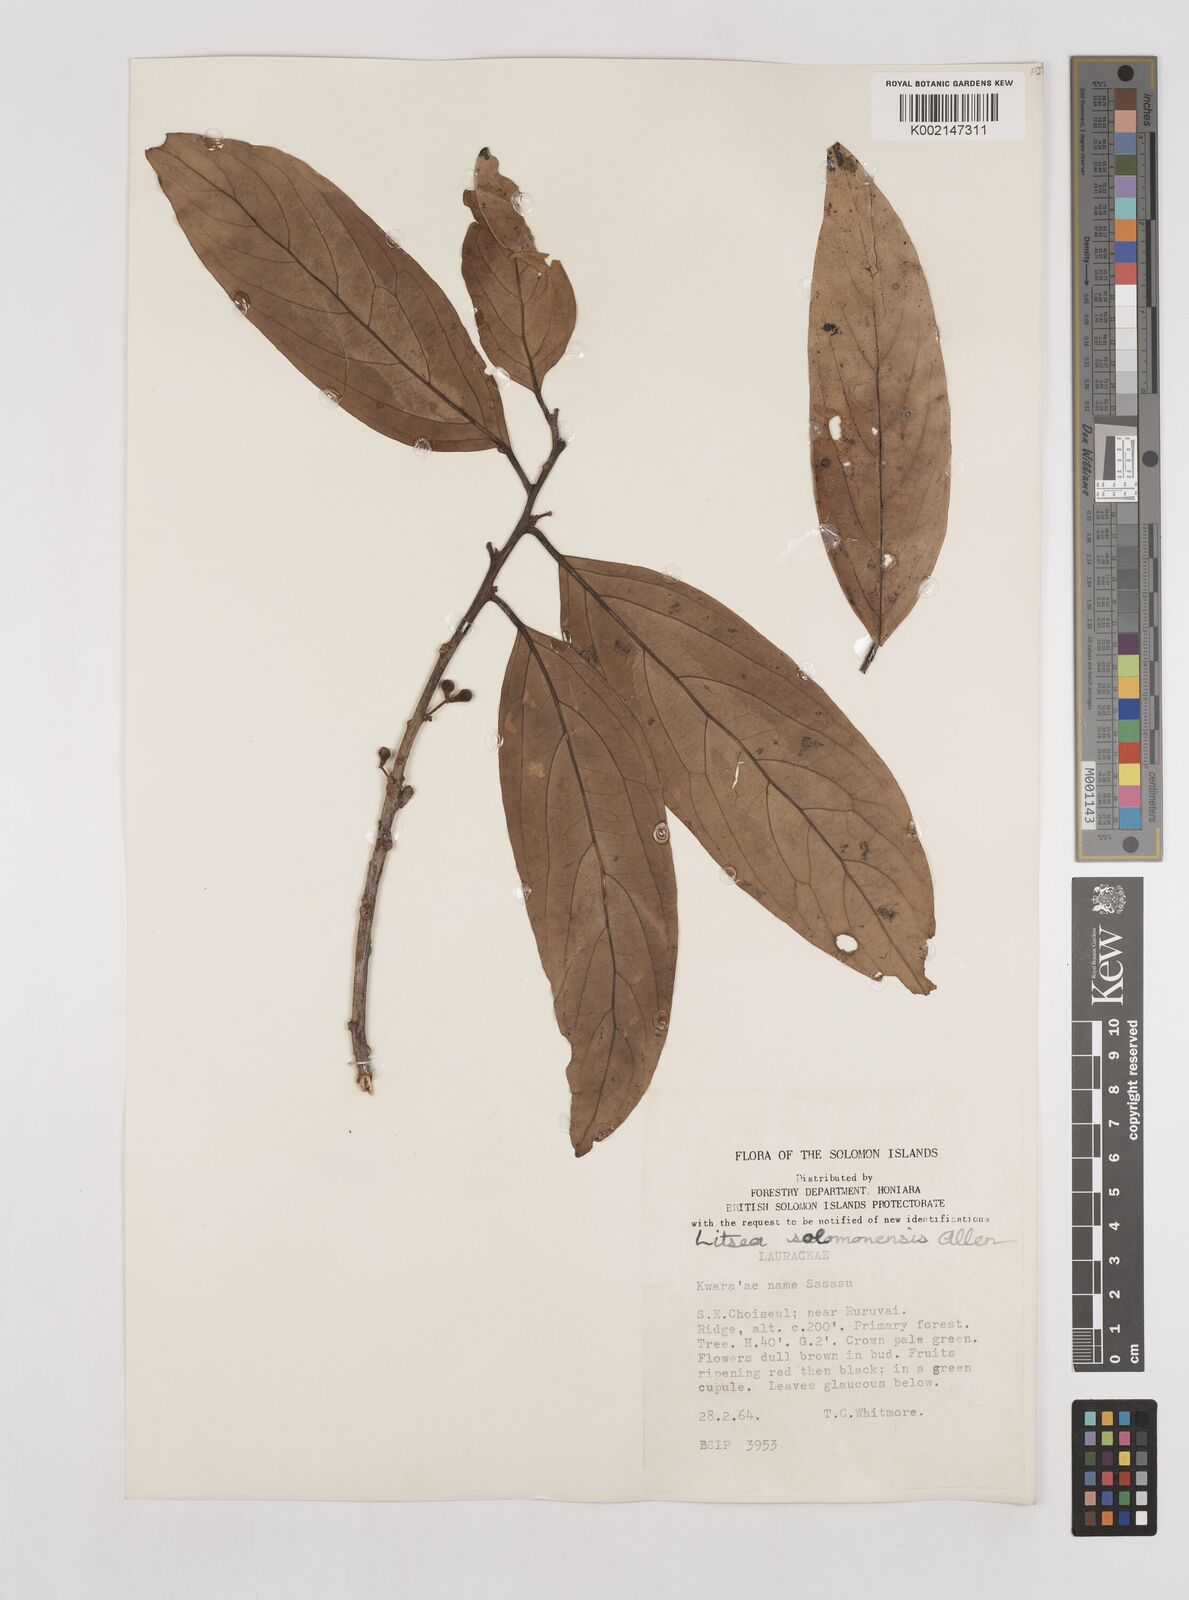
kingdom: Plantae
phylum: Tracheophyta
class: Magnoliopsida
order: Laurales
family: Lauraceae
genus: Litsea
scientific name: Litsea timoriana
